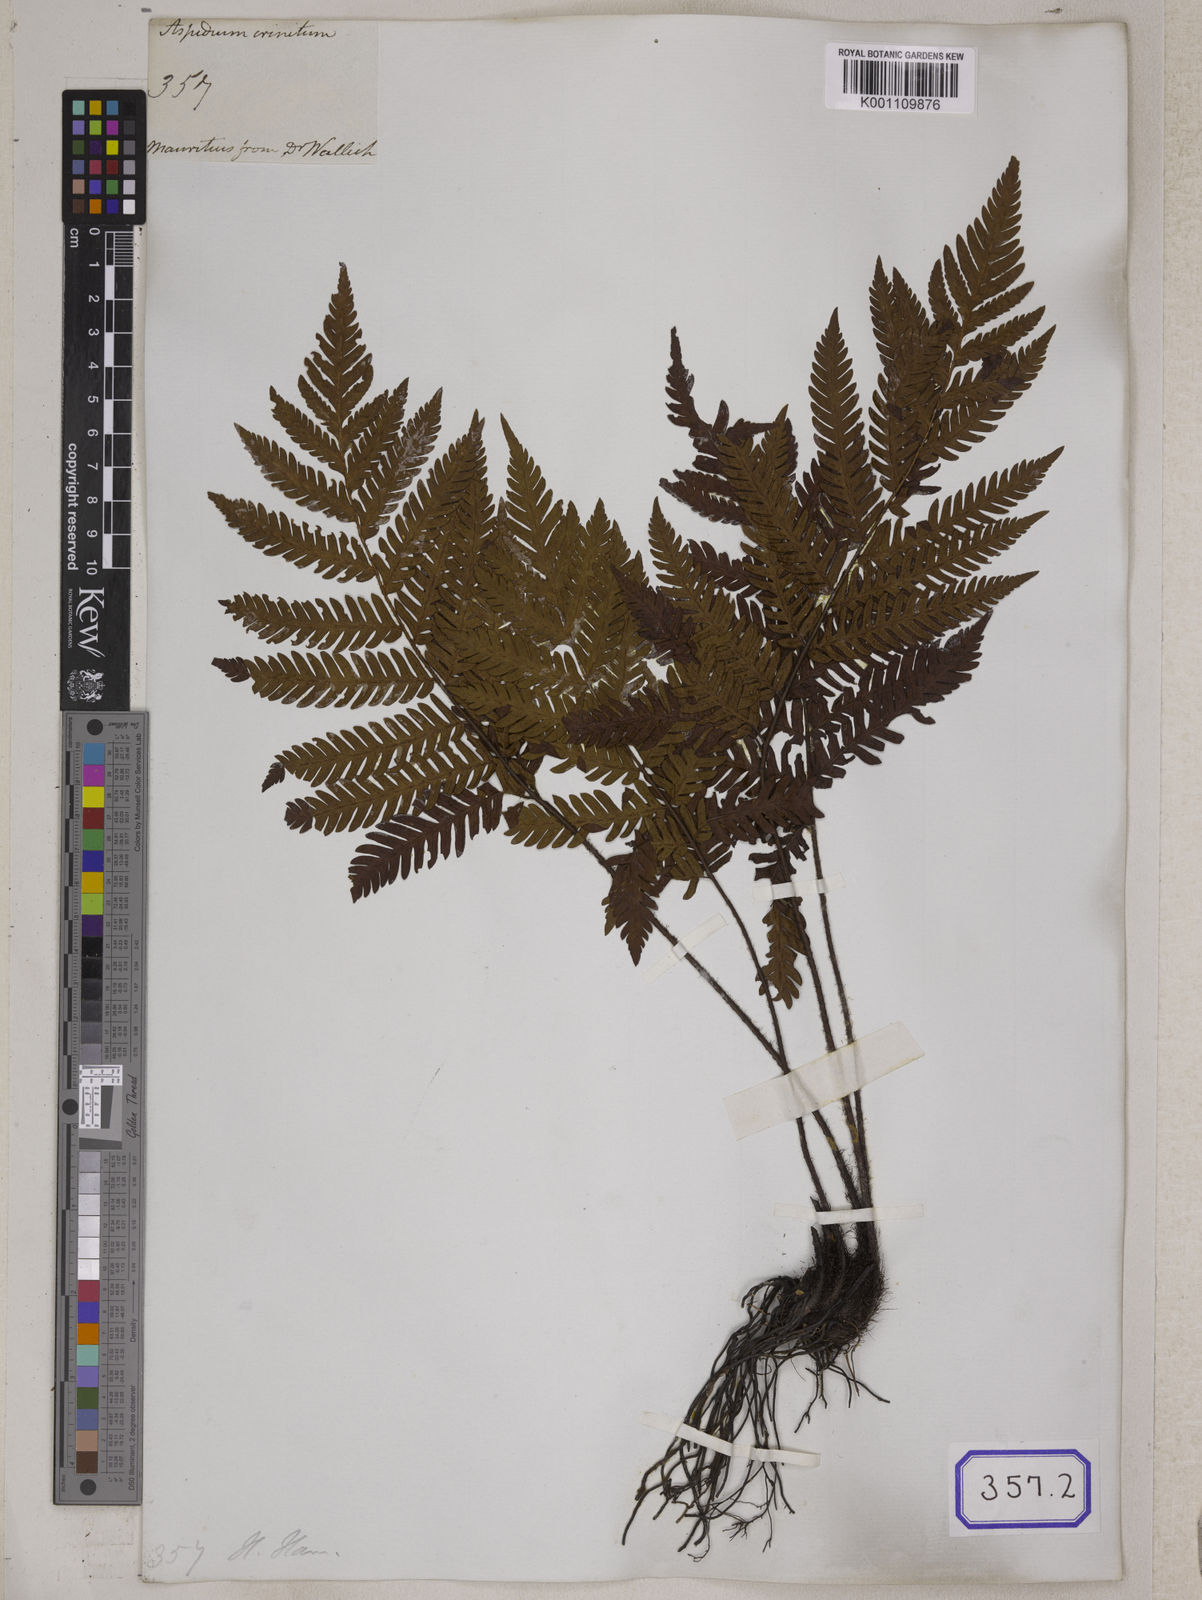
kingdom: Plantae
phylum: Tracheophyta
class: Polypodiopsida
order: Polypodiales
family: Tectariaceae
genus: Tectaria
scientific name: Tectaria Aspidium spec
